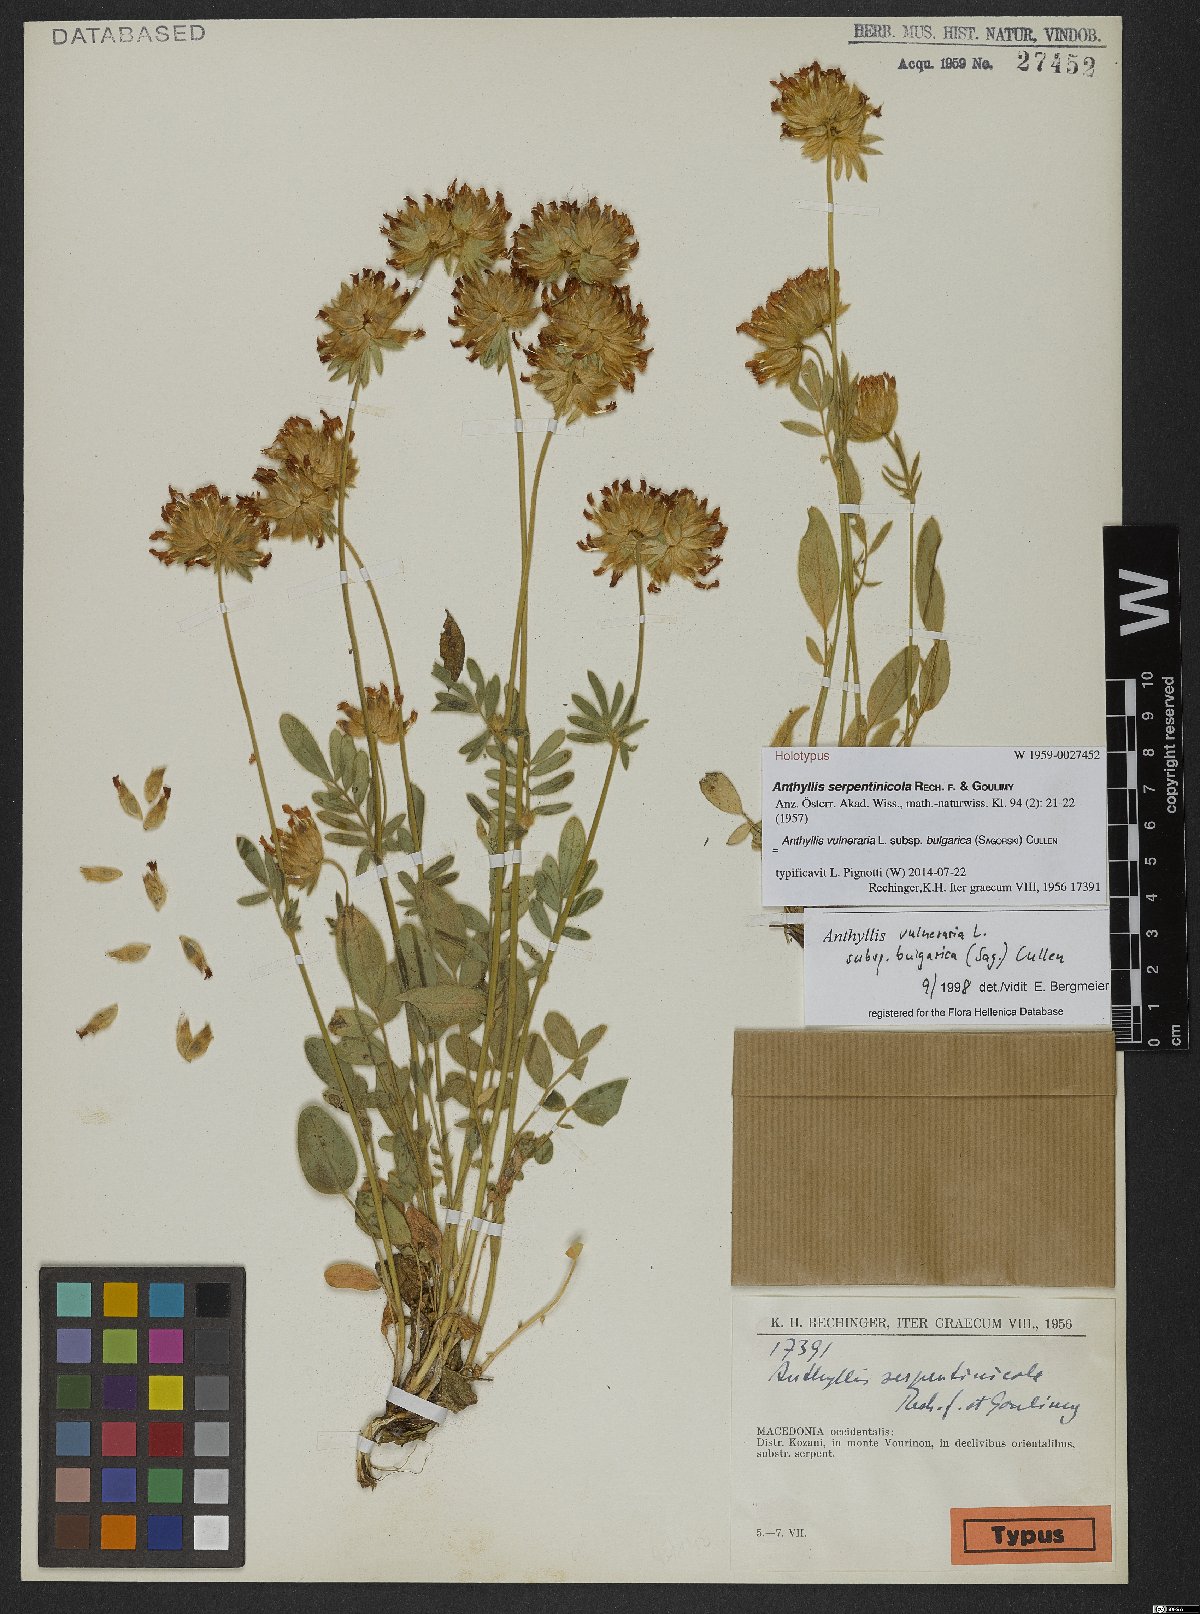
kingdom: Plantae
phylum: Tracheophyta
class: Magnoliopsida
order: Fabales
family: Fabaceae
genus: Anthyllis
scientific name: Anthyllis vulneraria
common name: Kidney vetch
